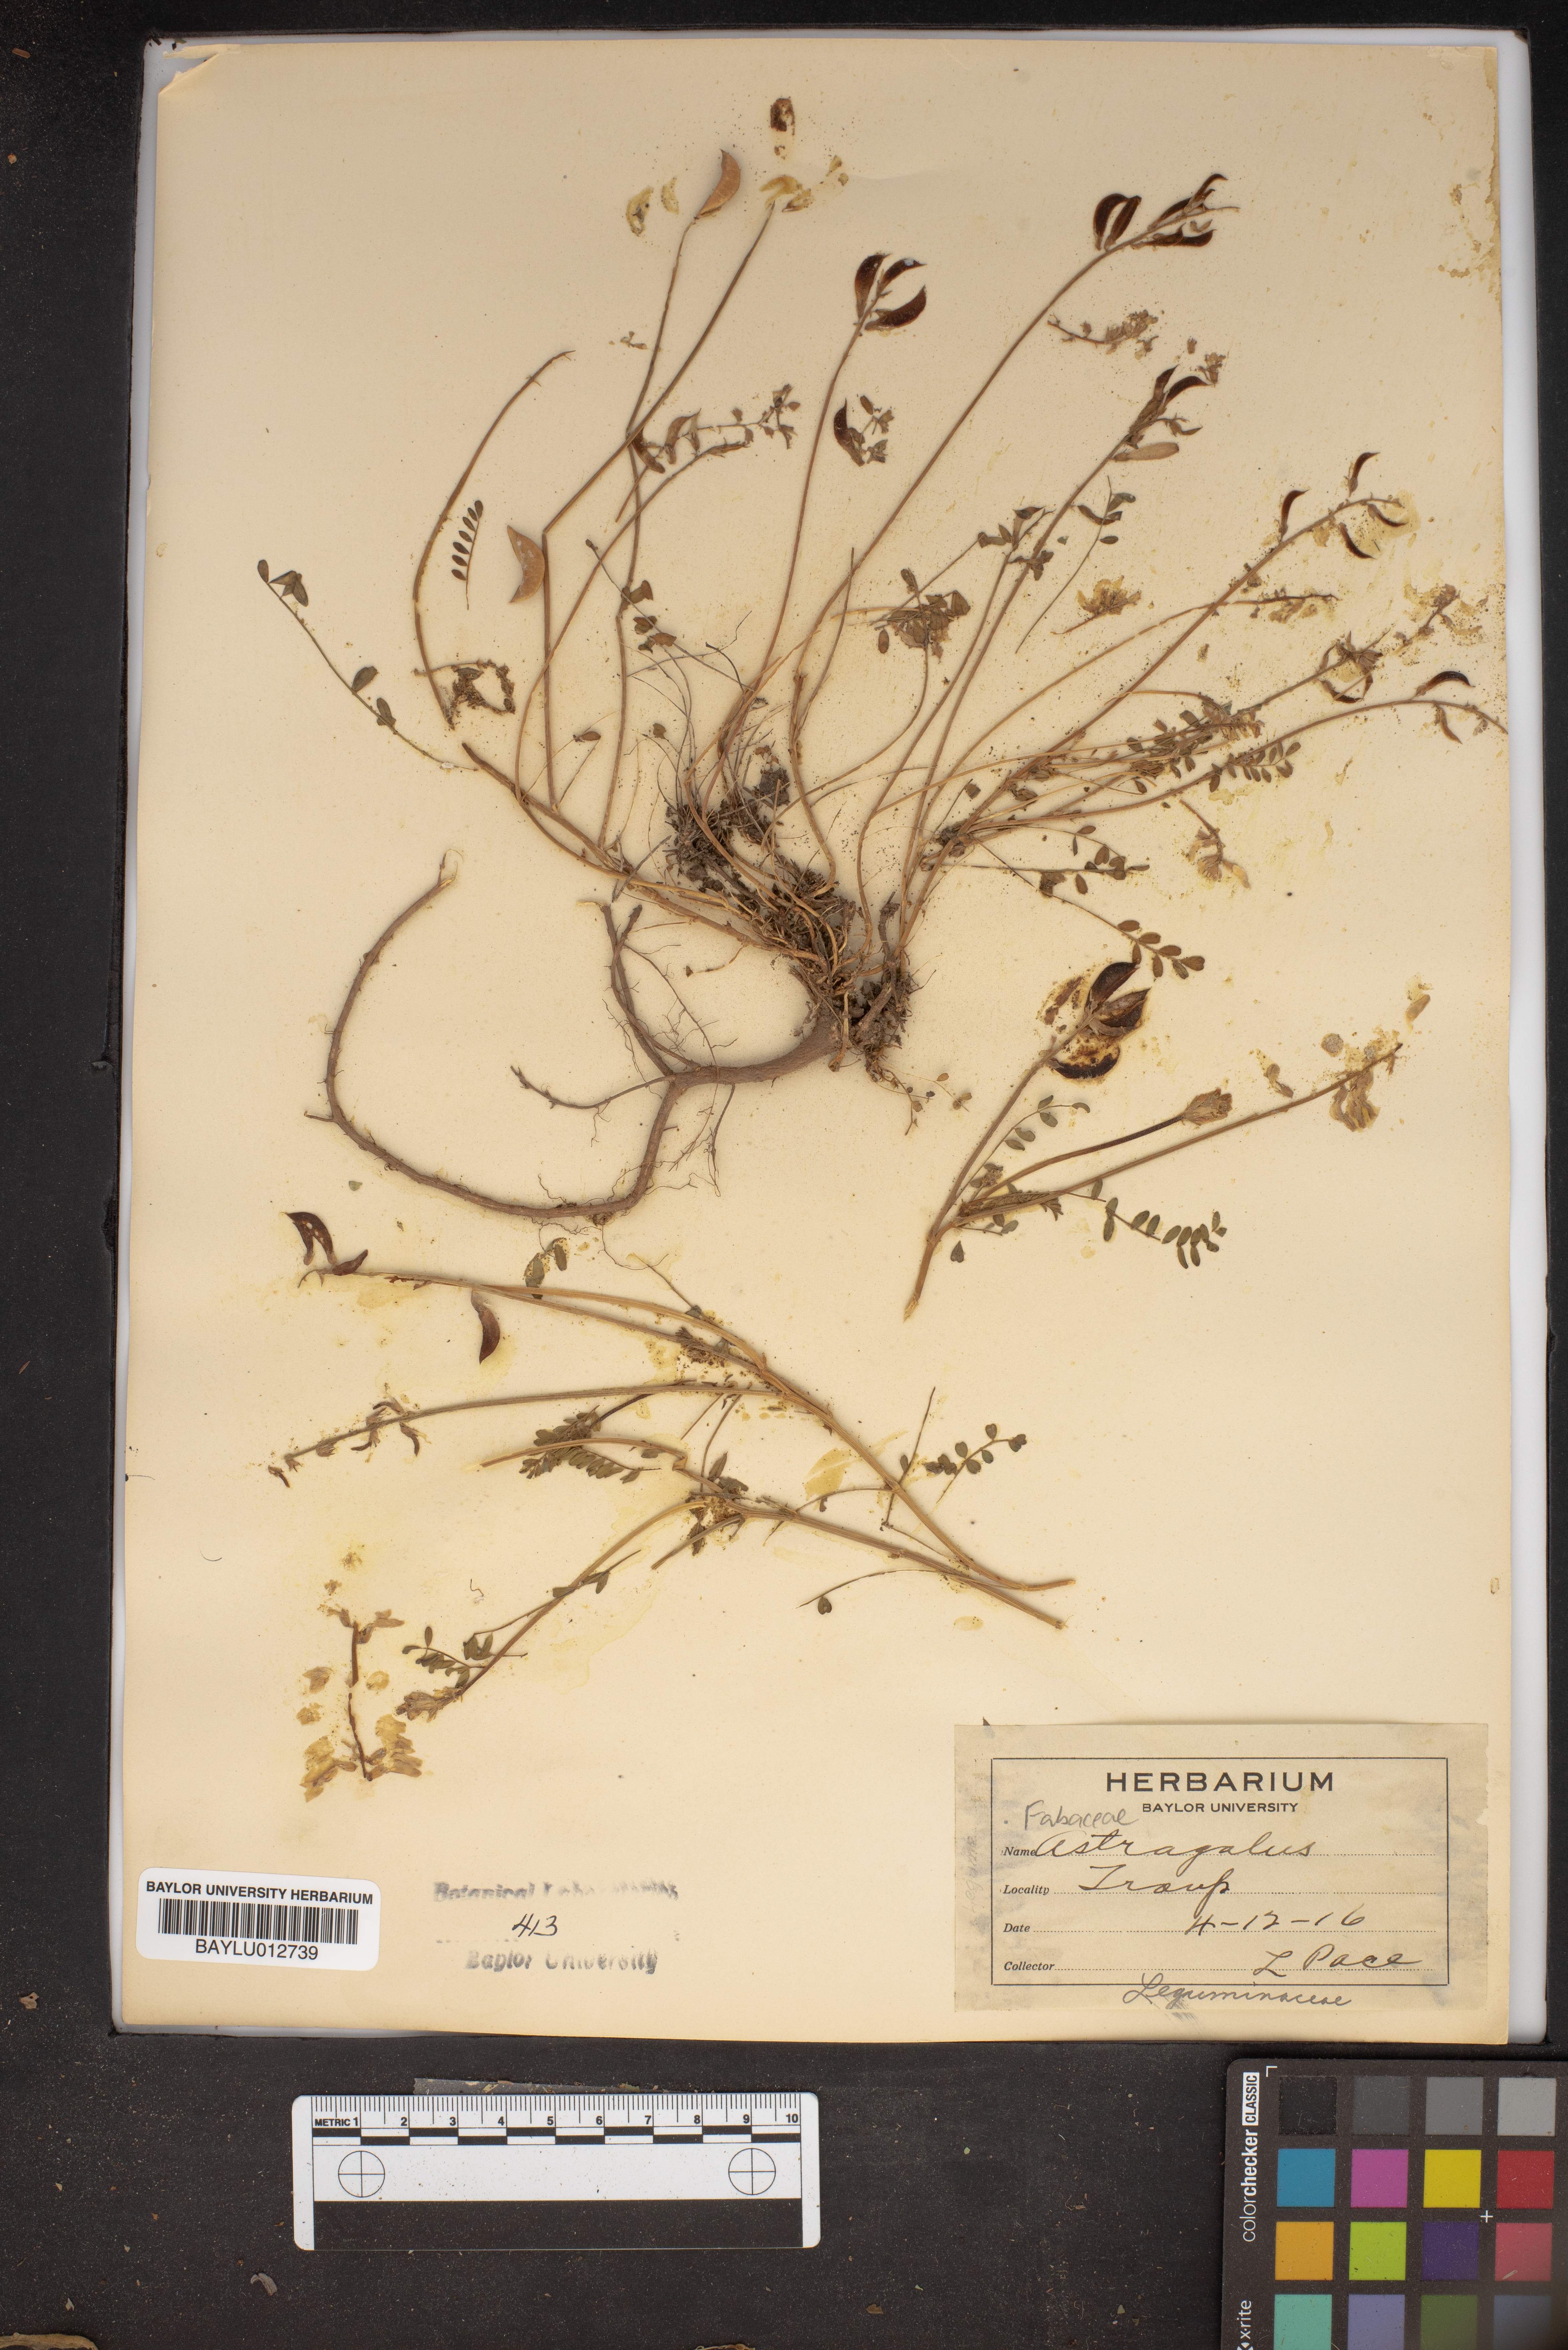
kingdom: Plantae
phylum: Tracheophyta
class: Magnoliopsida
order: Fabales
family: Fabaceae
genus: Astragalus
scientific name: Astragalus
